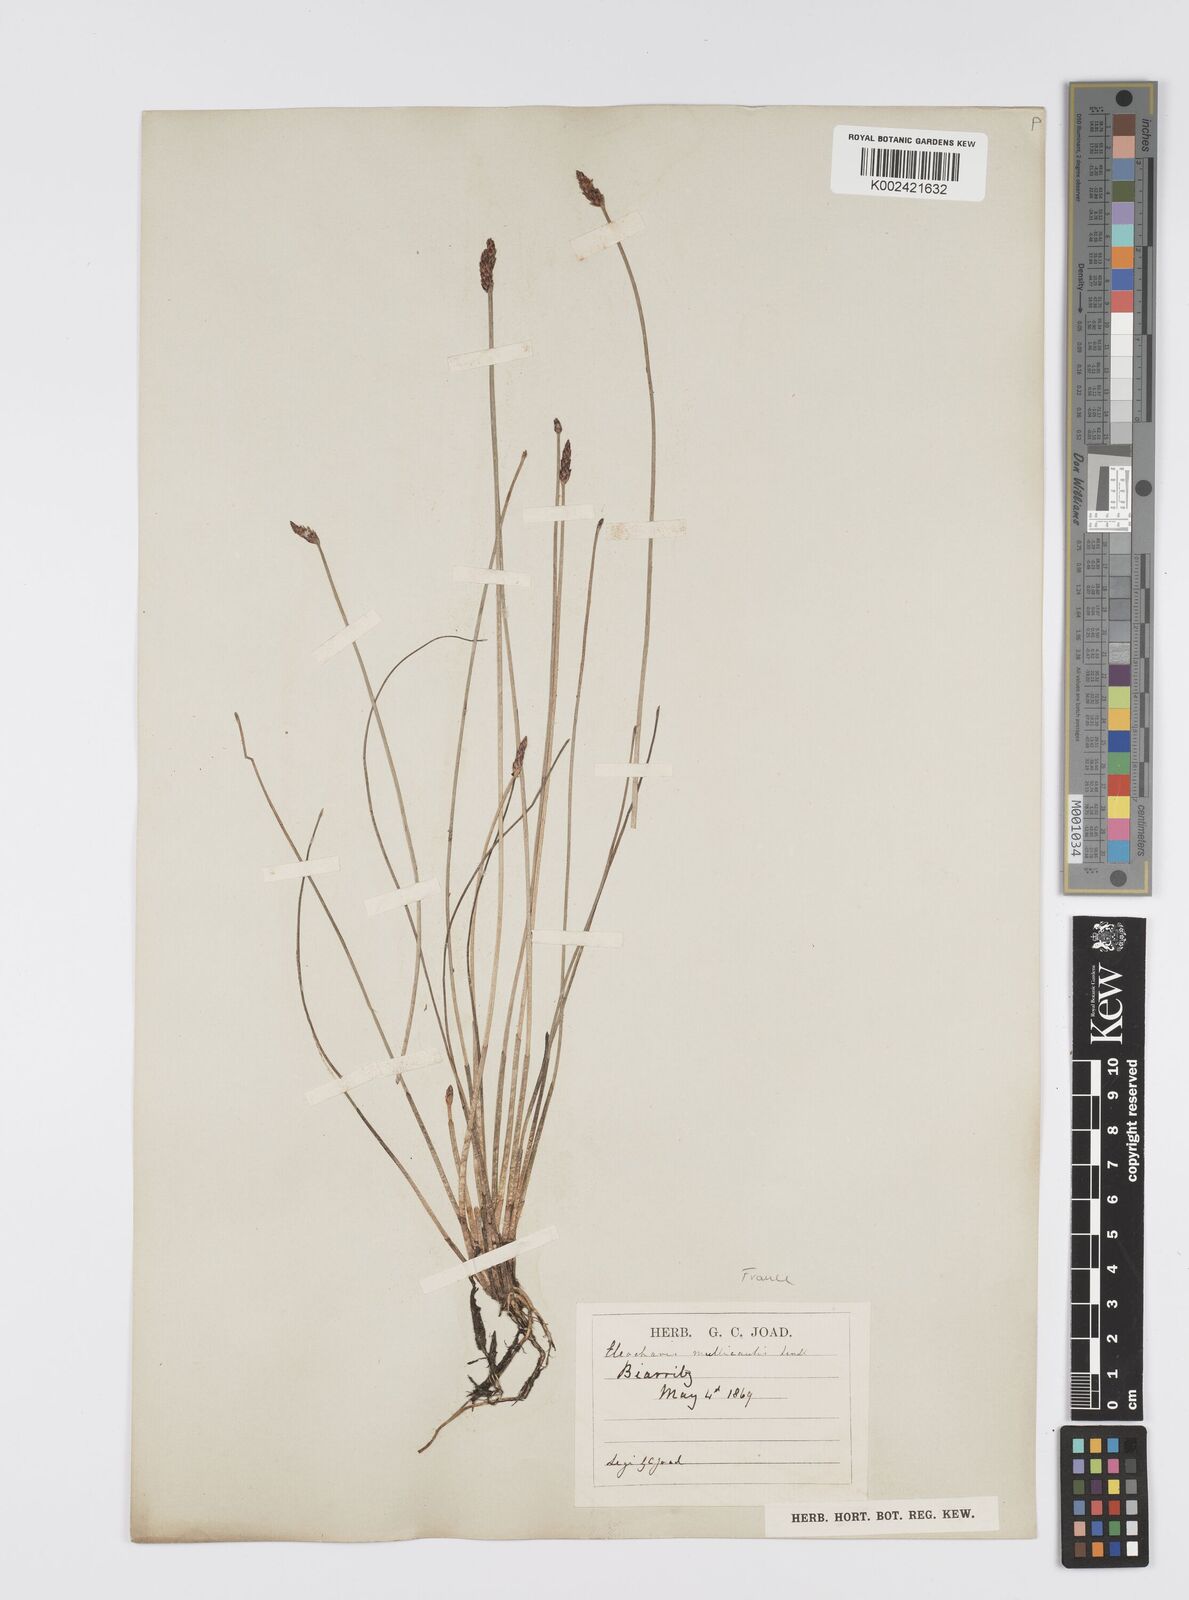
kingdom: Plantae
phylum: Tracheophyta
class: Liliopsida
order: Poales
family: Cyperaceae
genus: Eleocharis
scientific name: Eleocharis multicaulis
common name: Many-stalked spike-rush
